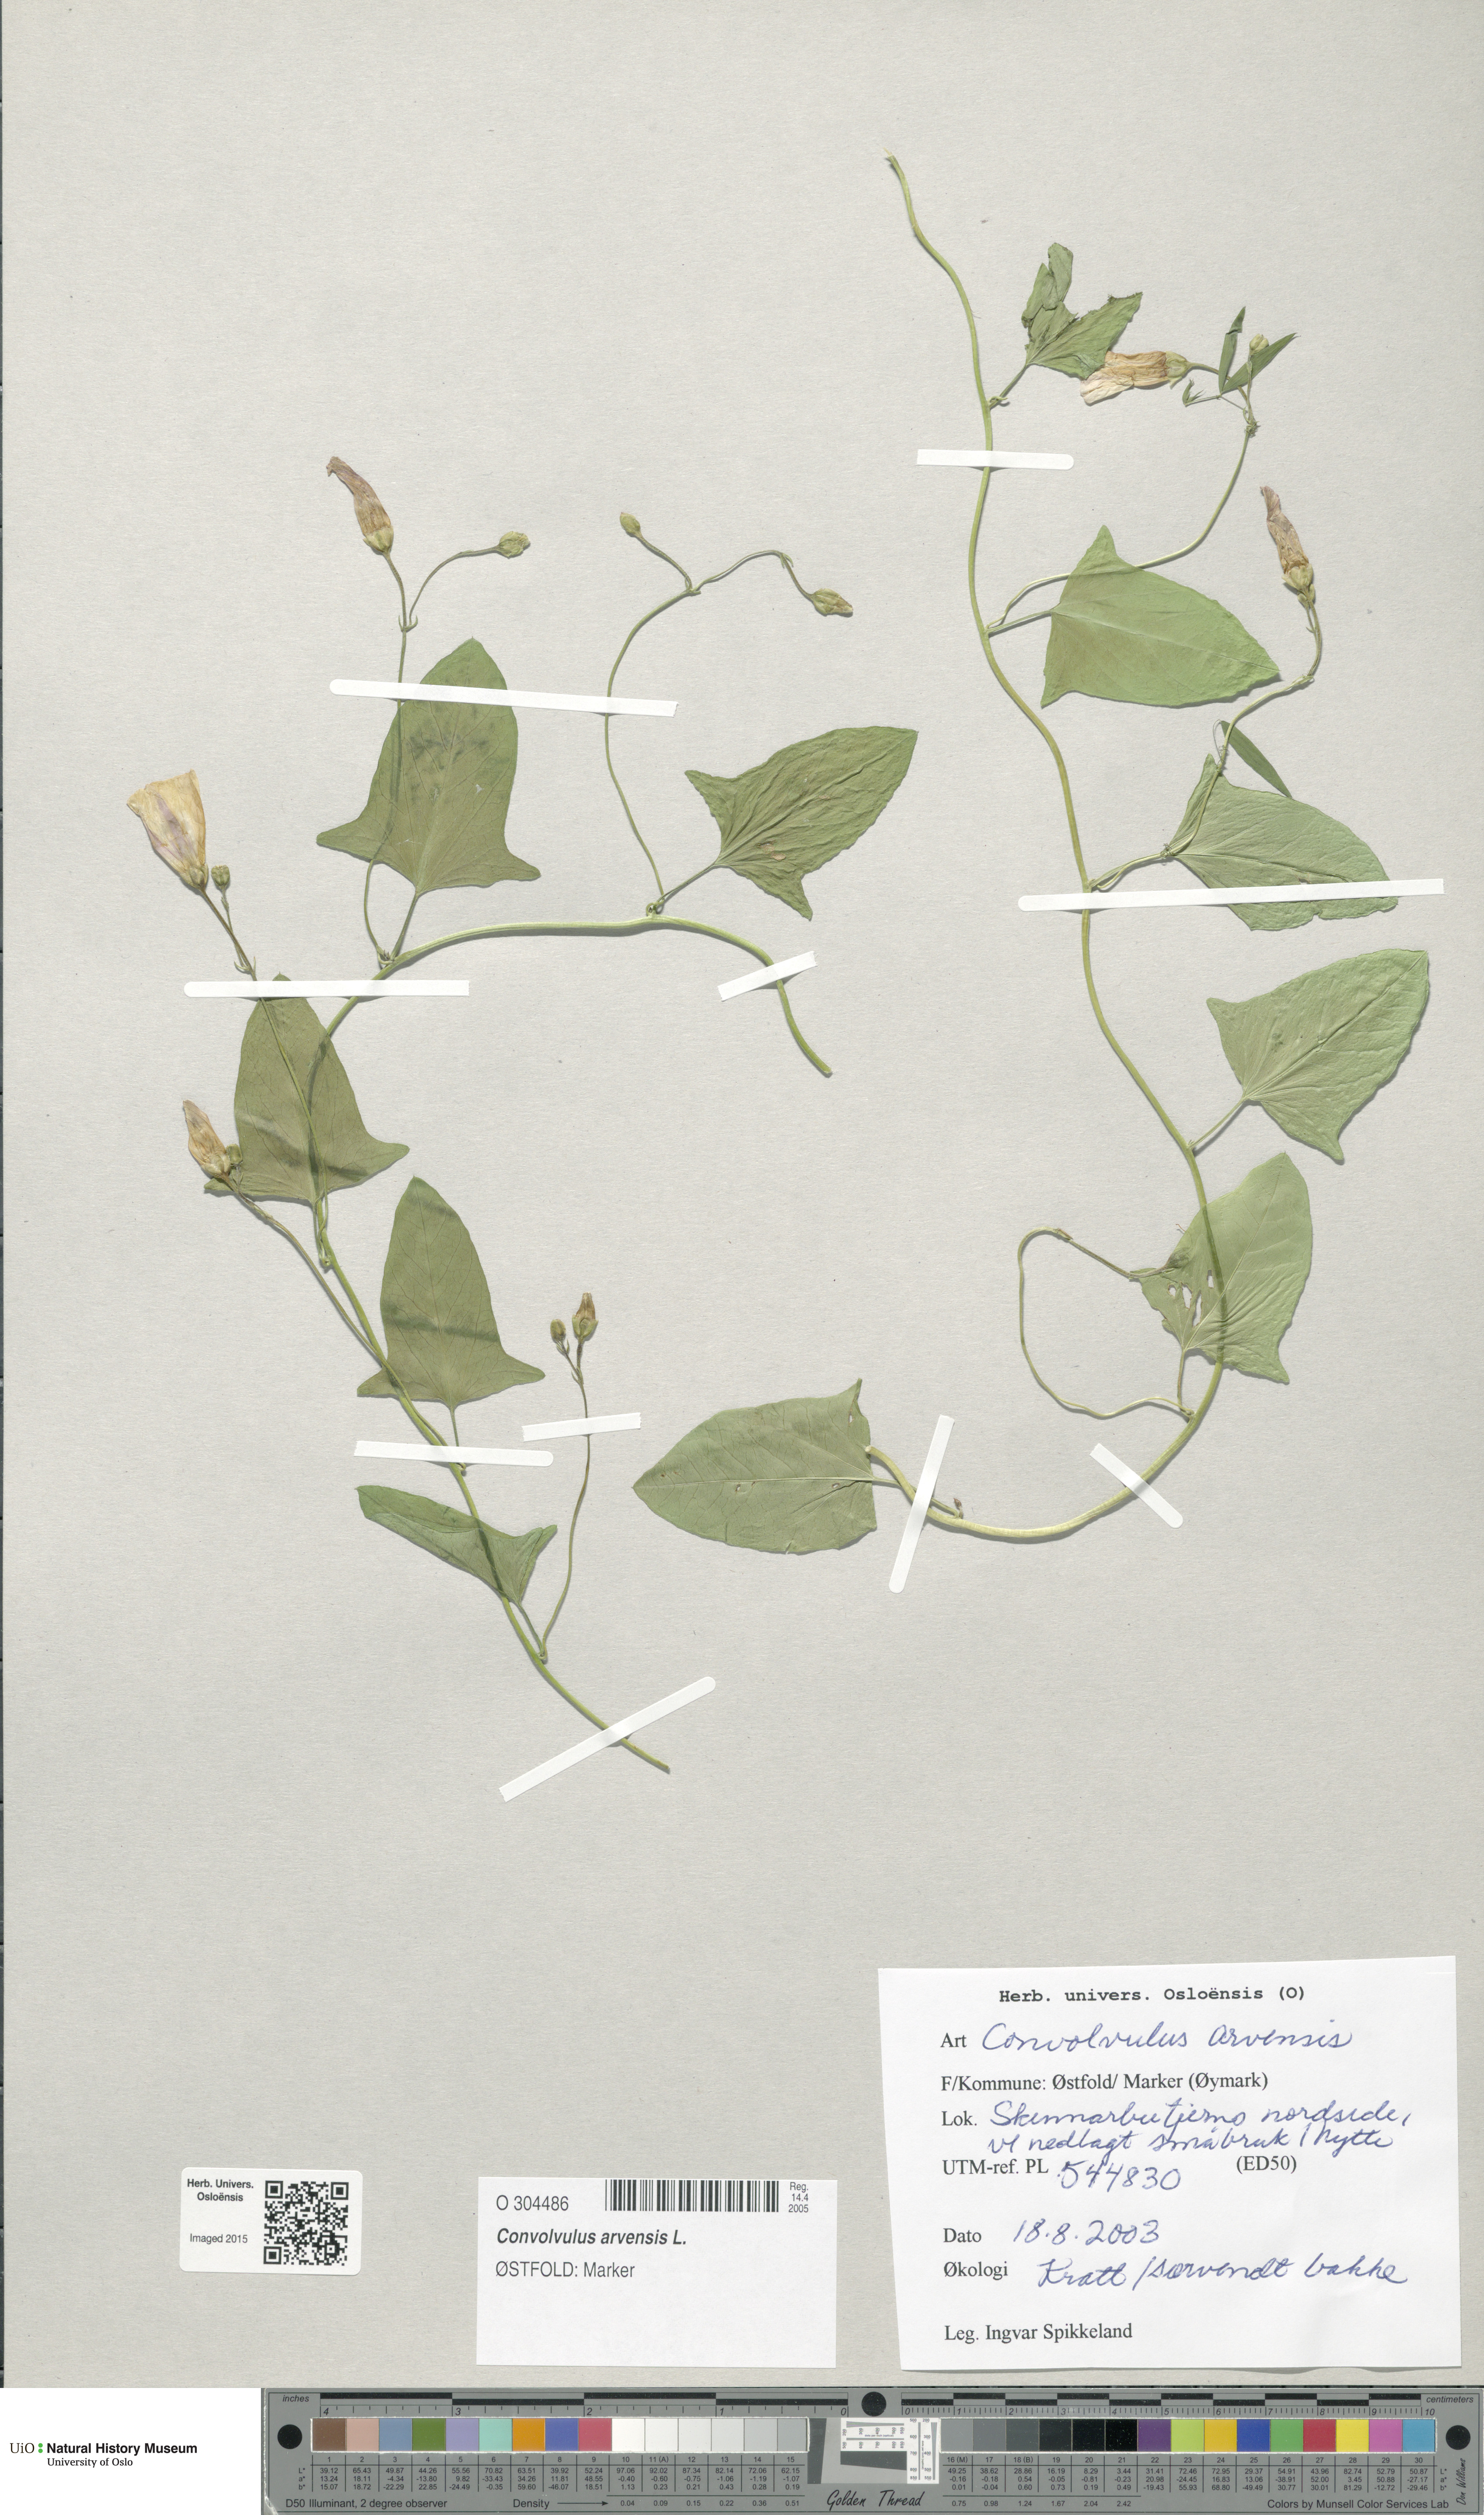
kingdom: Plantae
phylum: Tracheophyta
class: Magnoliopsida
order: Solanales
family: Convolvulaceae
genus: Convolvulus
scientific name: Convolvulus arvensis
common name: Field bindweed
